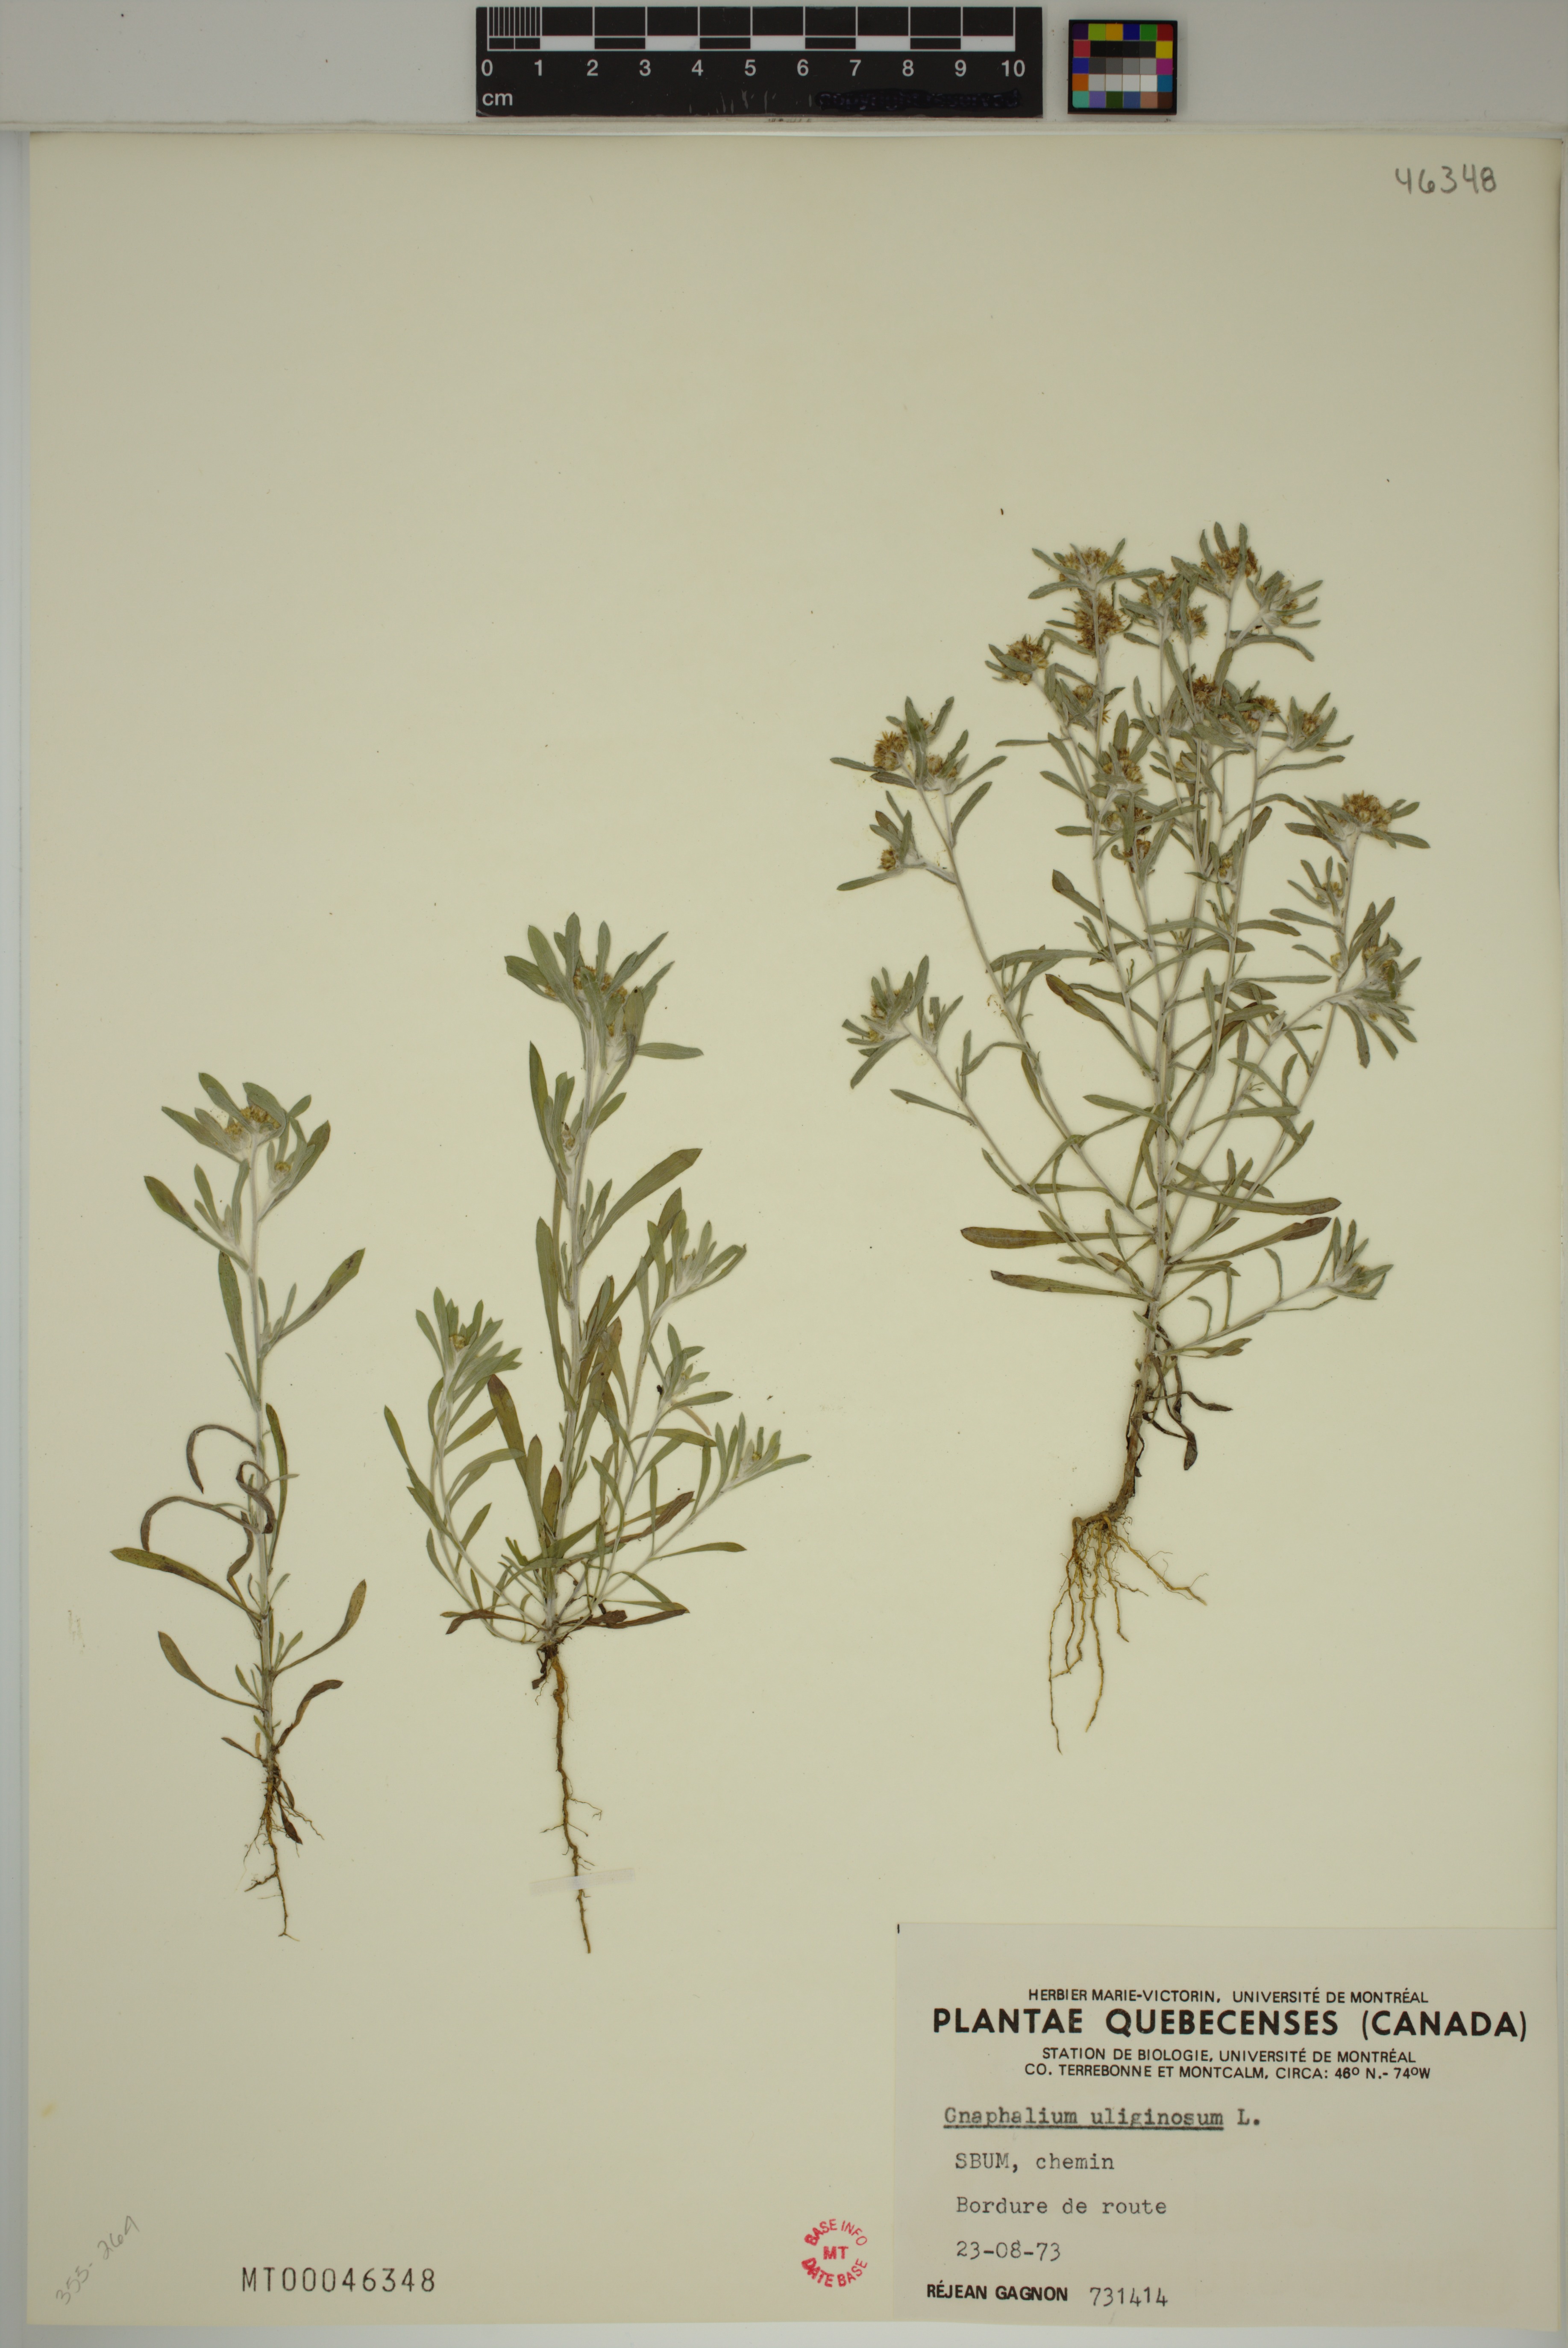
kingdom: Plantae
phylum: Tracheophyta
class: Magnoliopsida
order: Asterales
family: Asteraceae
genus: Gnaphalium
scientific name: Gnaphalium uliginosum
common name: Marsh cudweed
